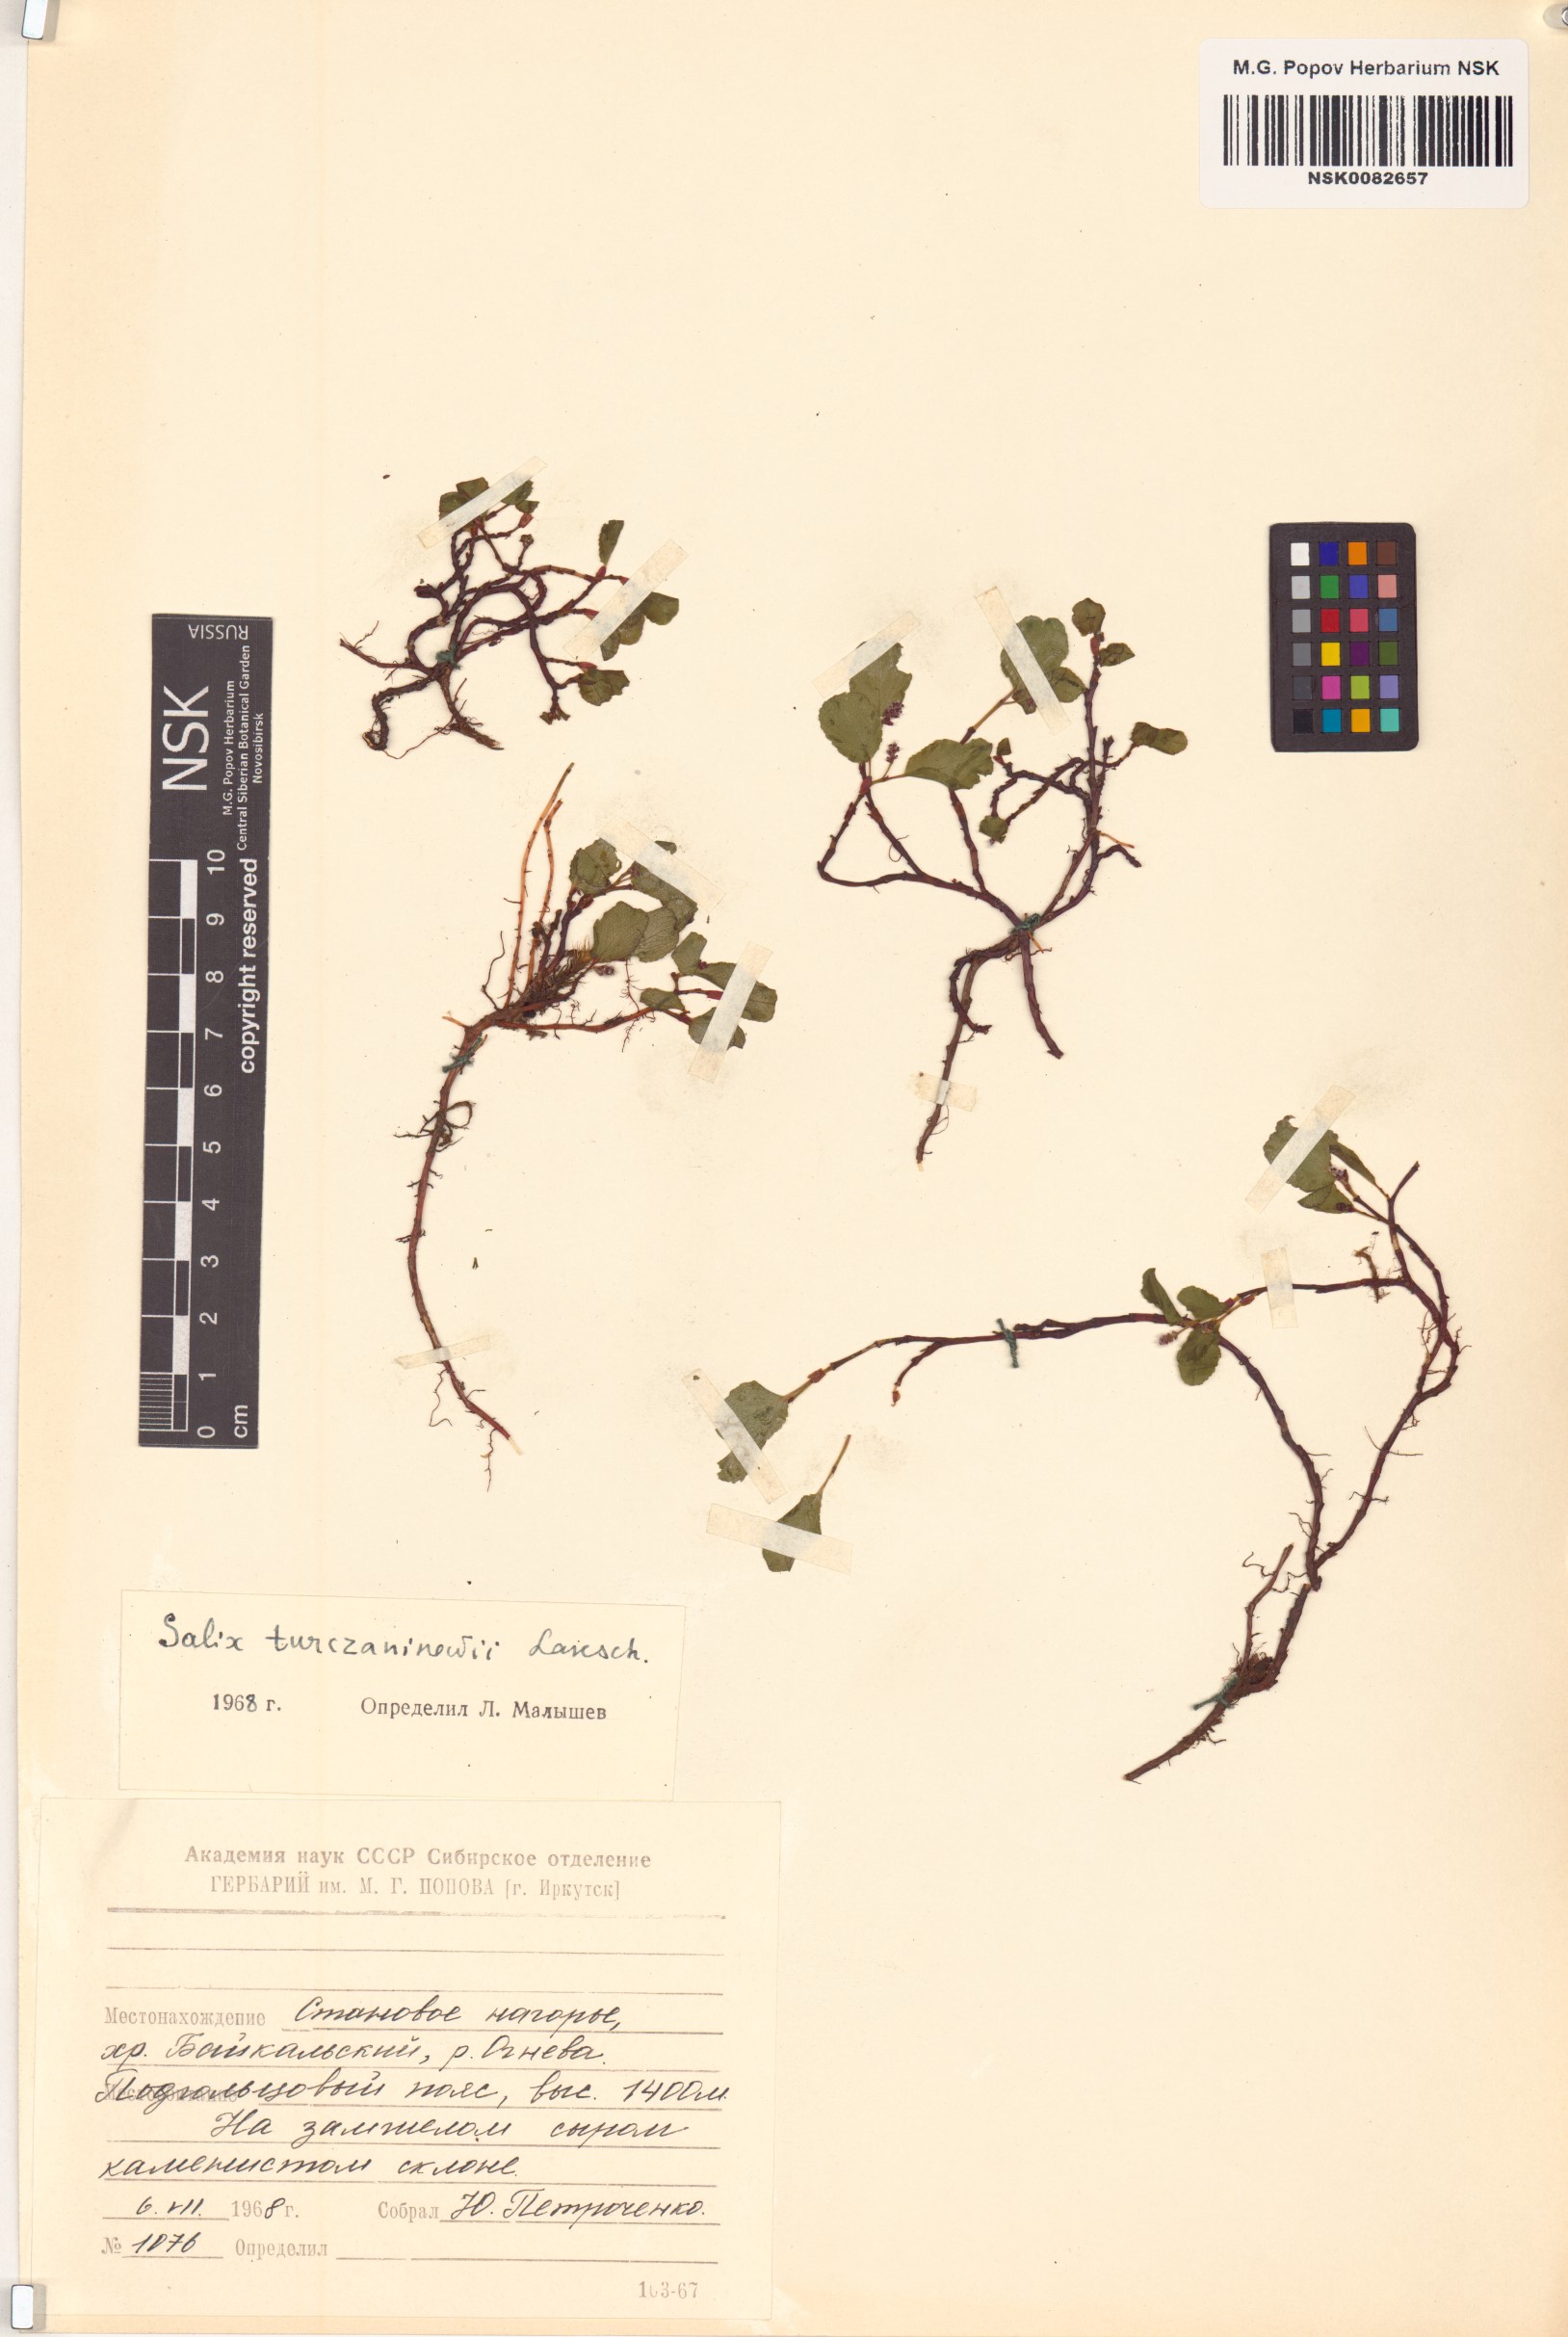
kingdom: Plantae
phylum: Tracheophyta
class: Magnoliopsida
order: Malpighiales
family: Salicaceae
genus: Salix
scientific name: Salix turczaninowii
